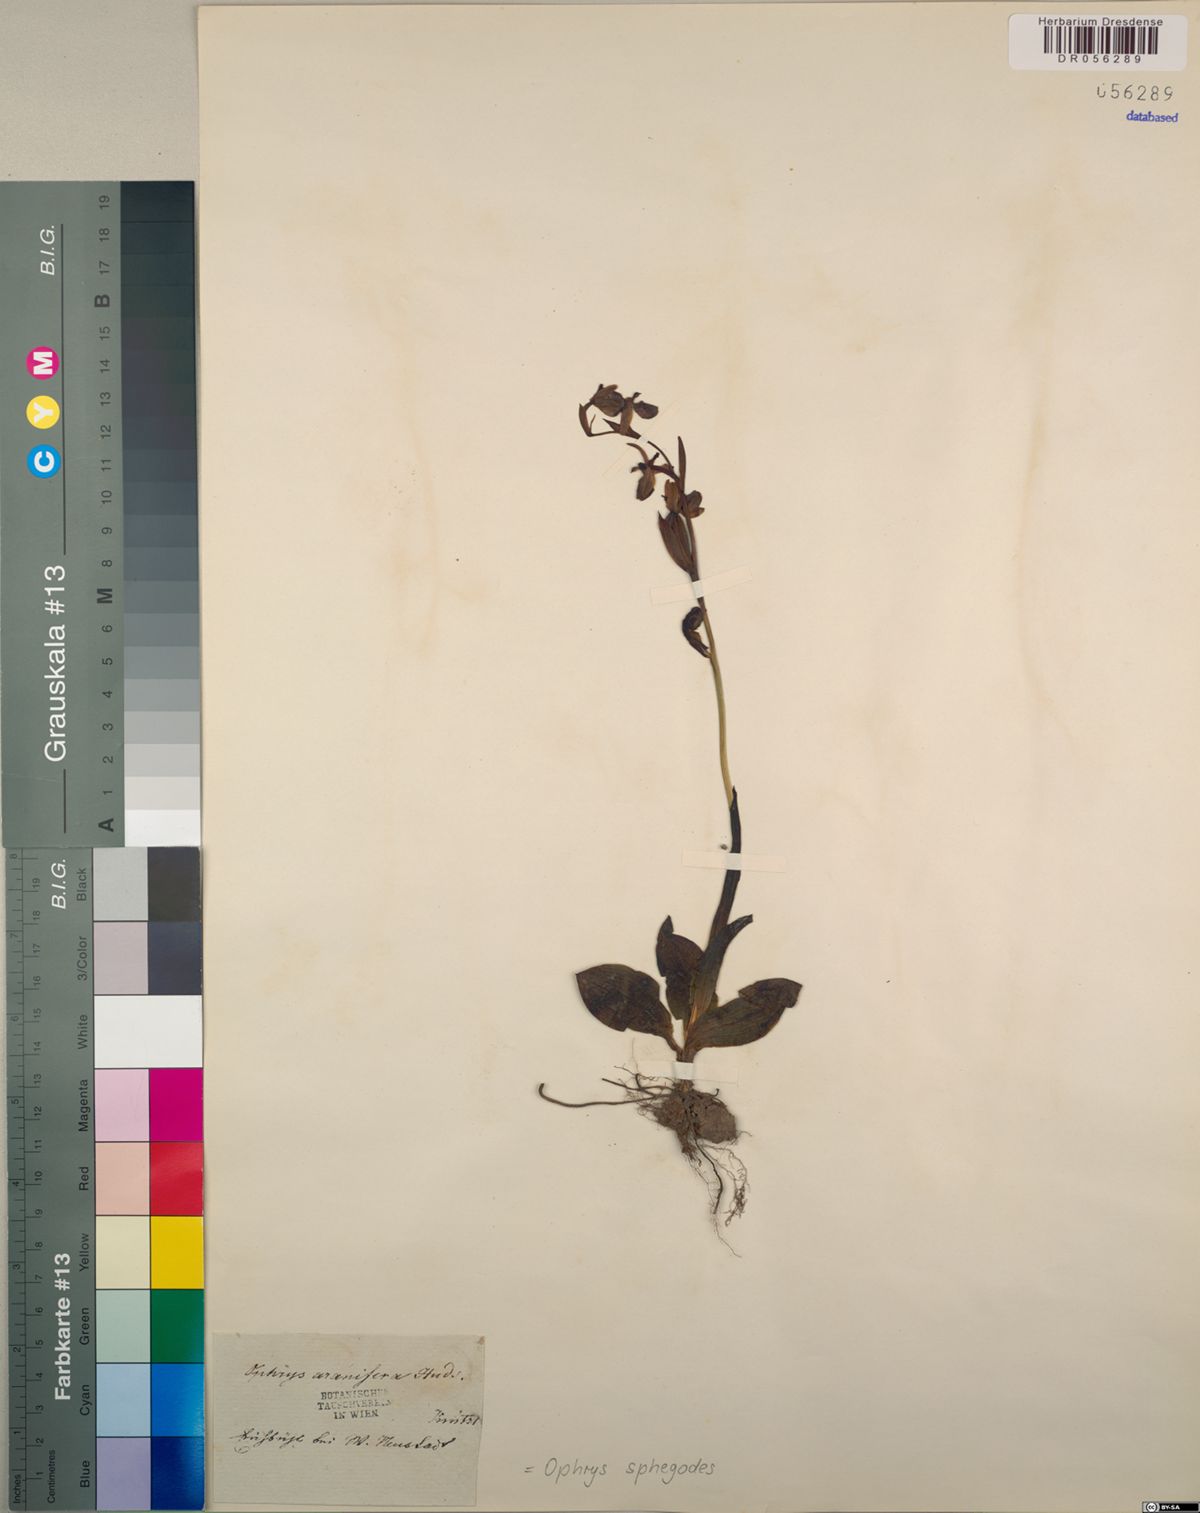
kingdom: Plantae
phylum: Tracheophyta
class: Liliopsida
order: Asparagales
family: Orchidaceae
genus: Ophrys
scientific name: Ophrys sphegodes
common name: Early spider-orchid
